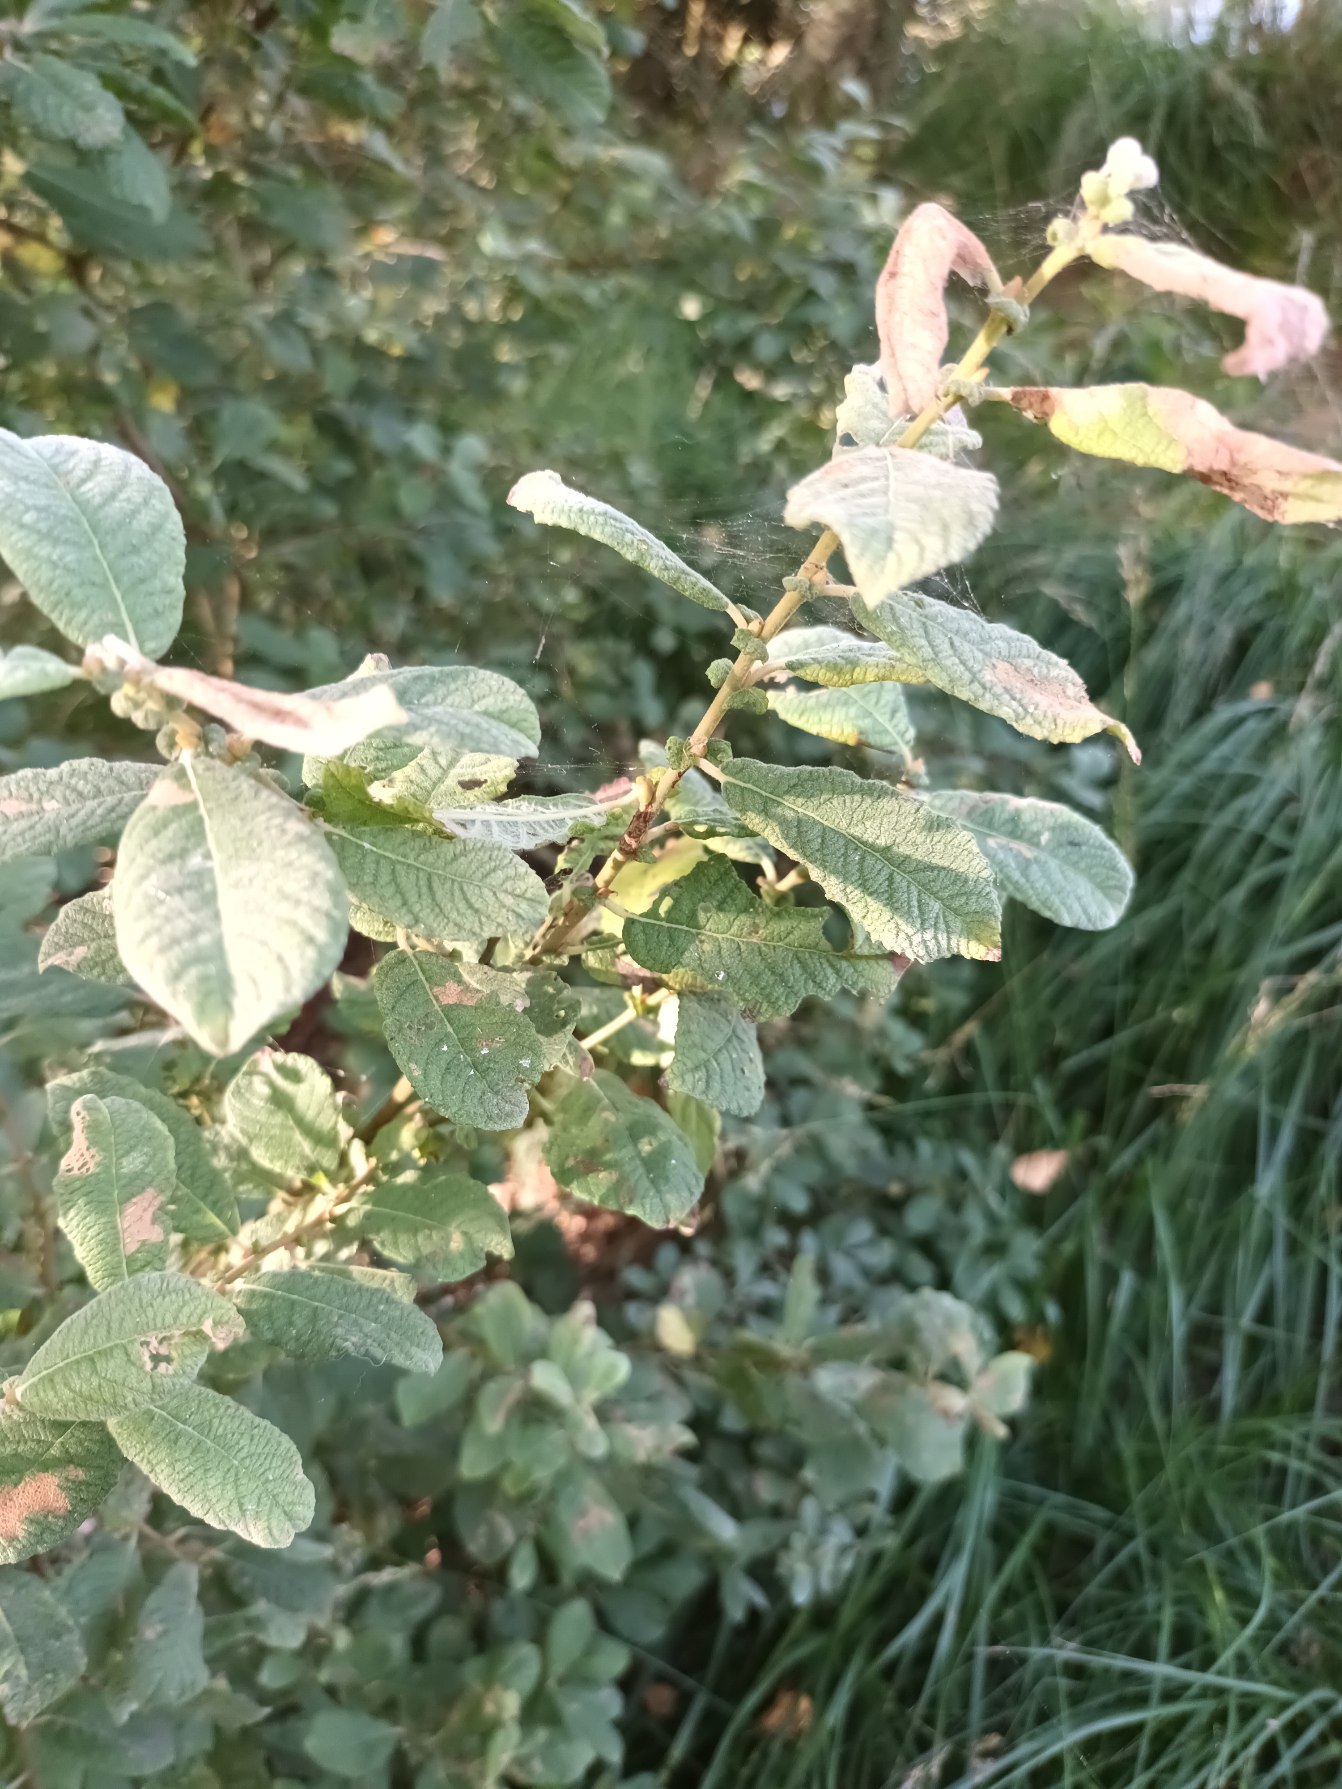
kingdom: Plantae
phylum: Tracheophyta
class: Magnoliopsida
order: Malpighiales
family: Salicaceae
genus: Salix
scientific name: Salix aurita
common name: Øret pil
